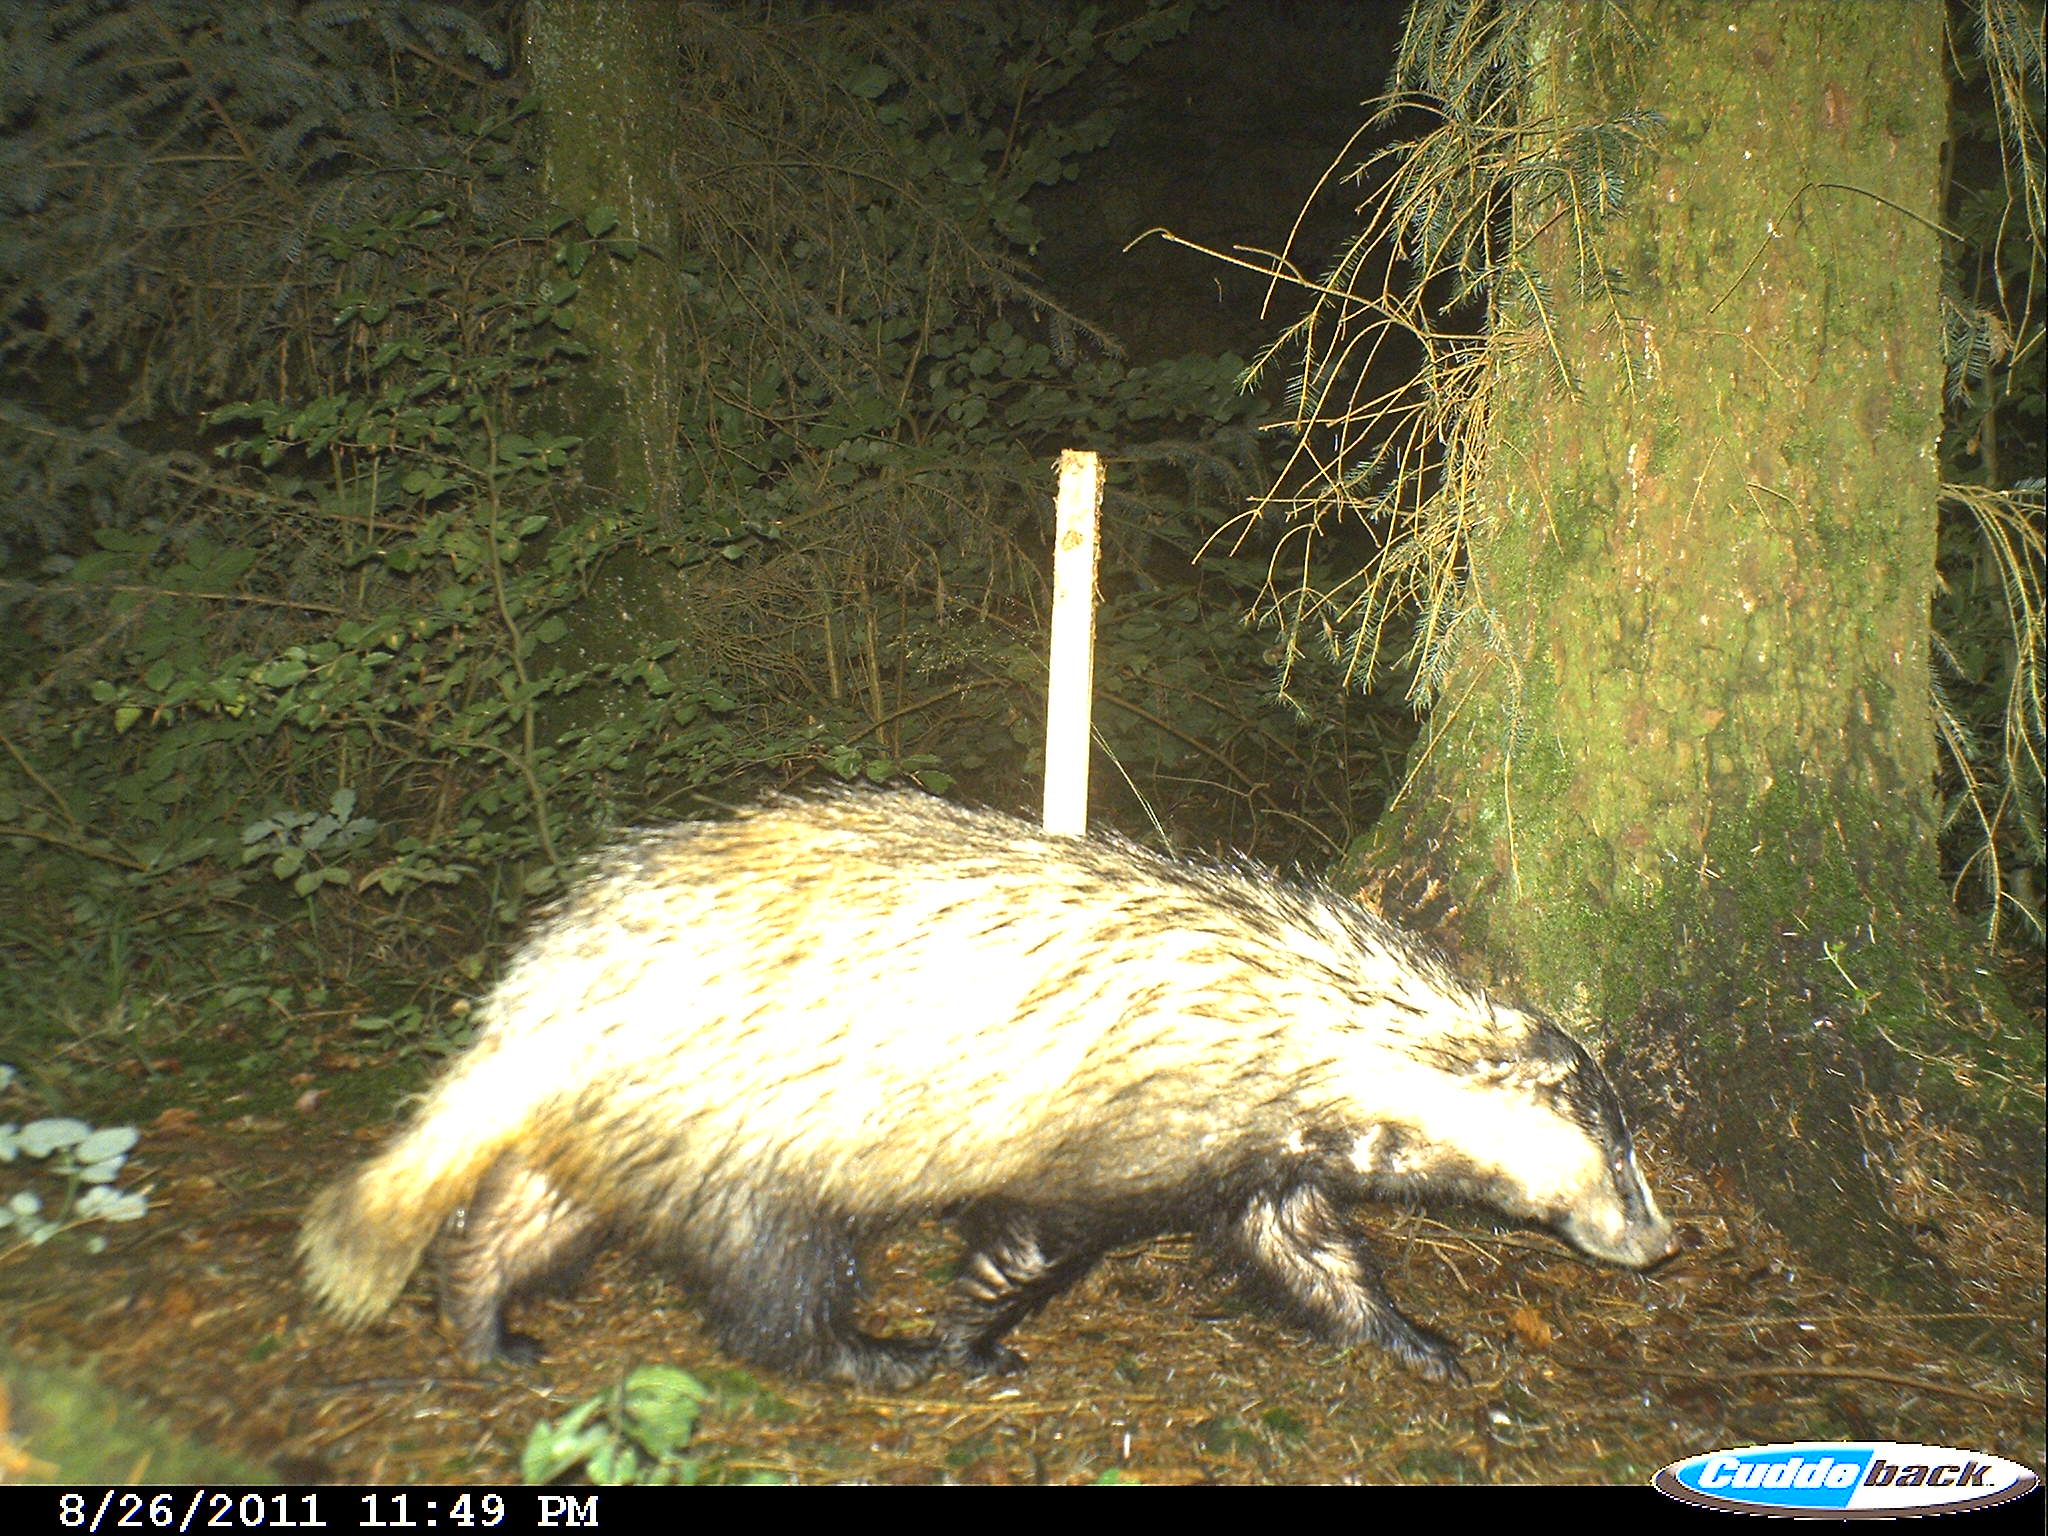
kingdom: Animalia
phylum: Chordata
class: Mammalia
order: Carnivora
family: Mustelidae
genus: Meles
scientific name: Meles meles
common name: Eurasian badger
